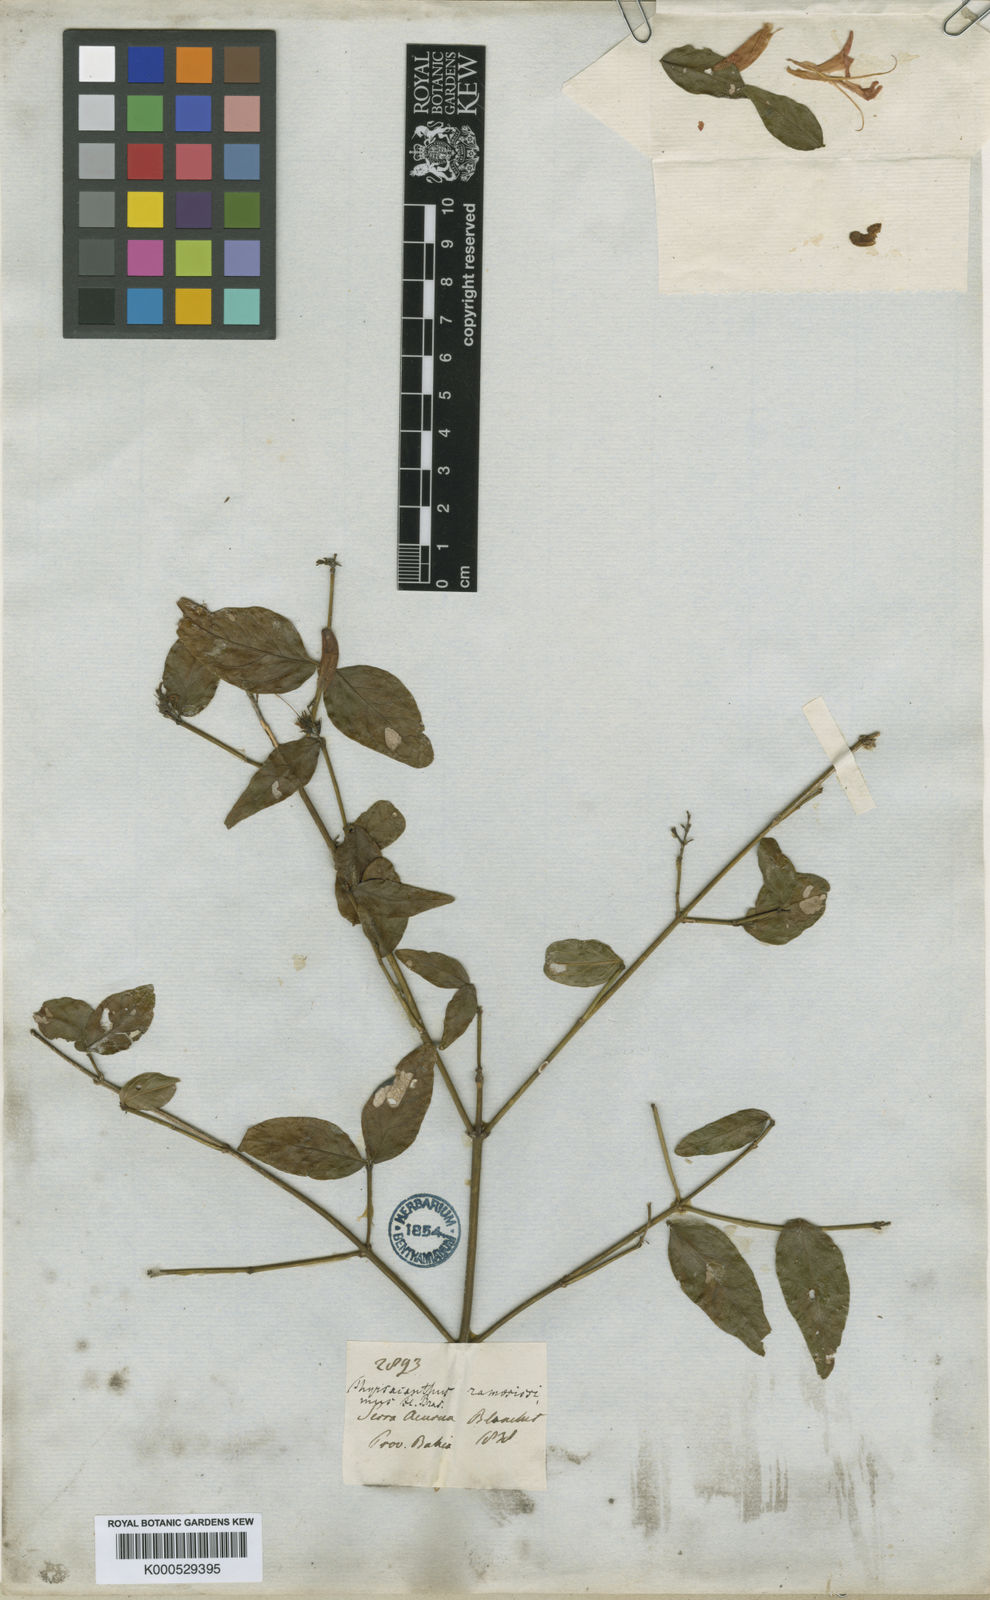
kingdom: Plantae
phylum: Tracheophyta
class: Magnoliopsida
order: Lamiales
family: Acanthaceae
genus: Thyrsacanthus
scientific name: Thyrsacanthus ramosissimus
